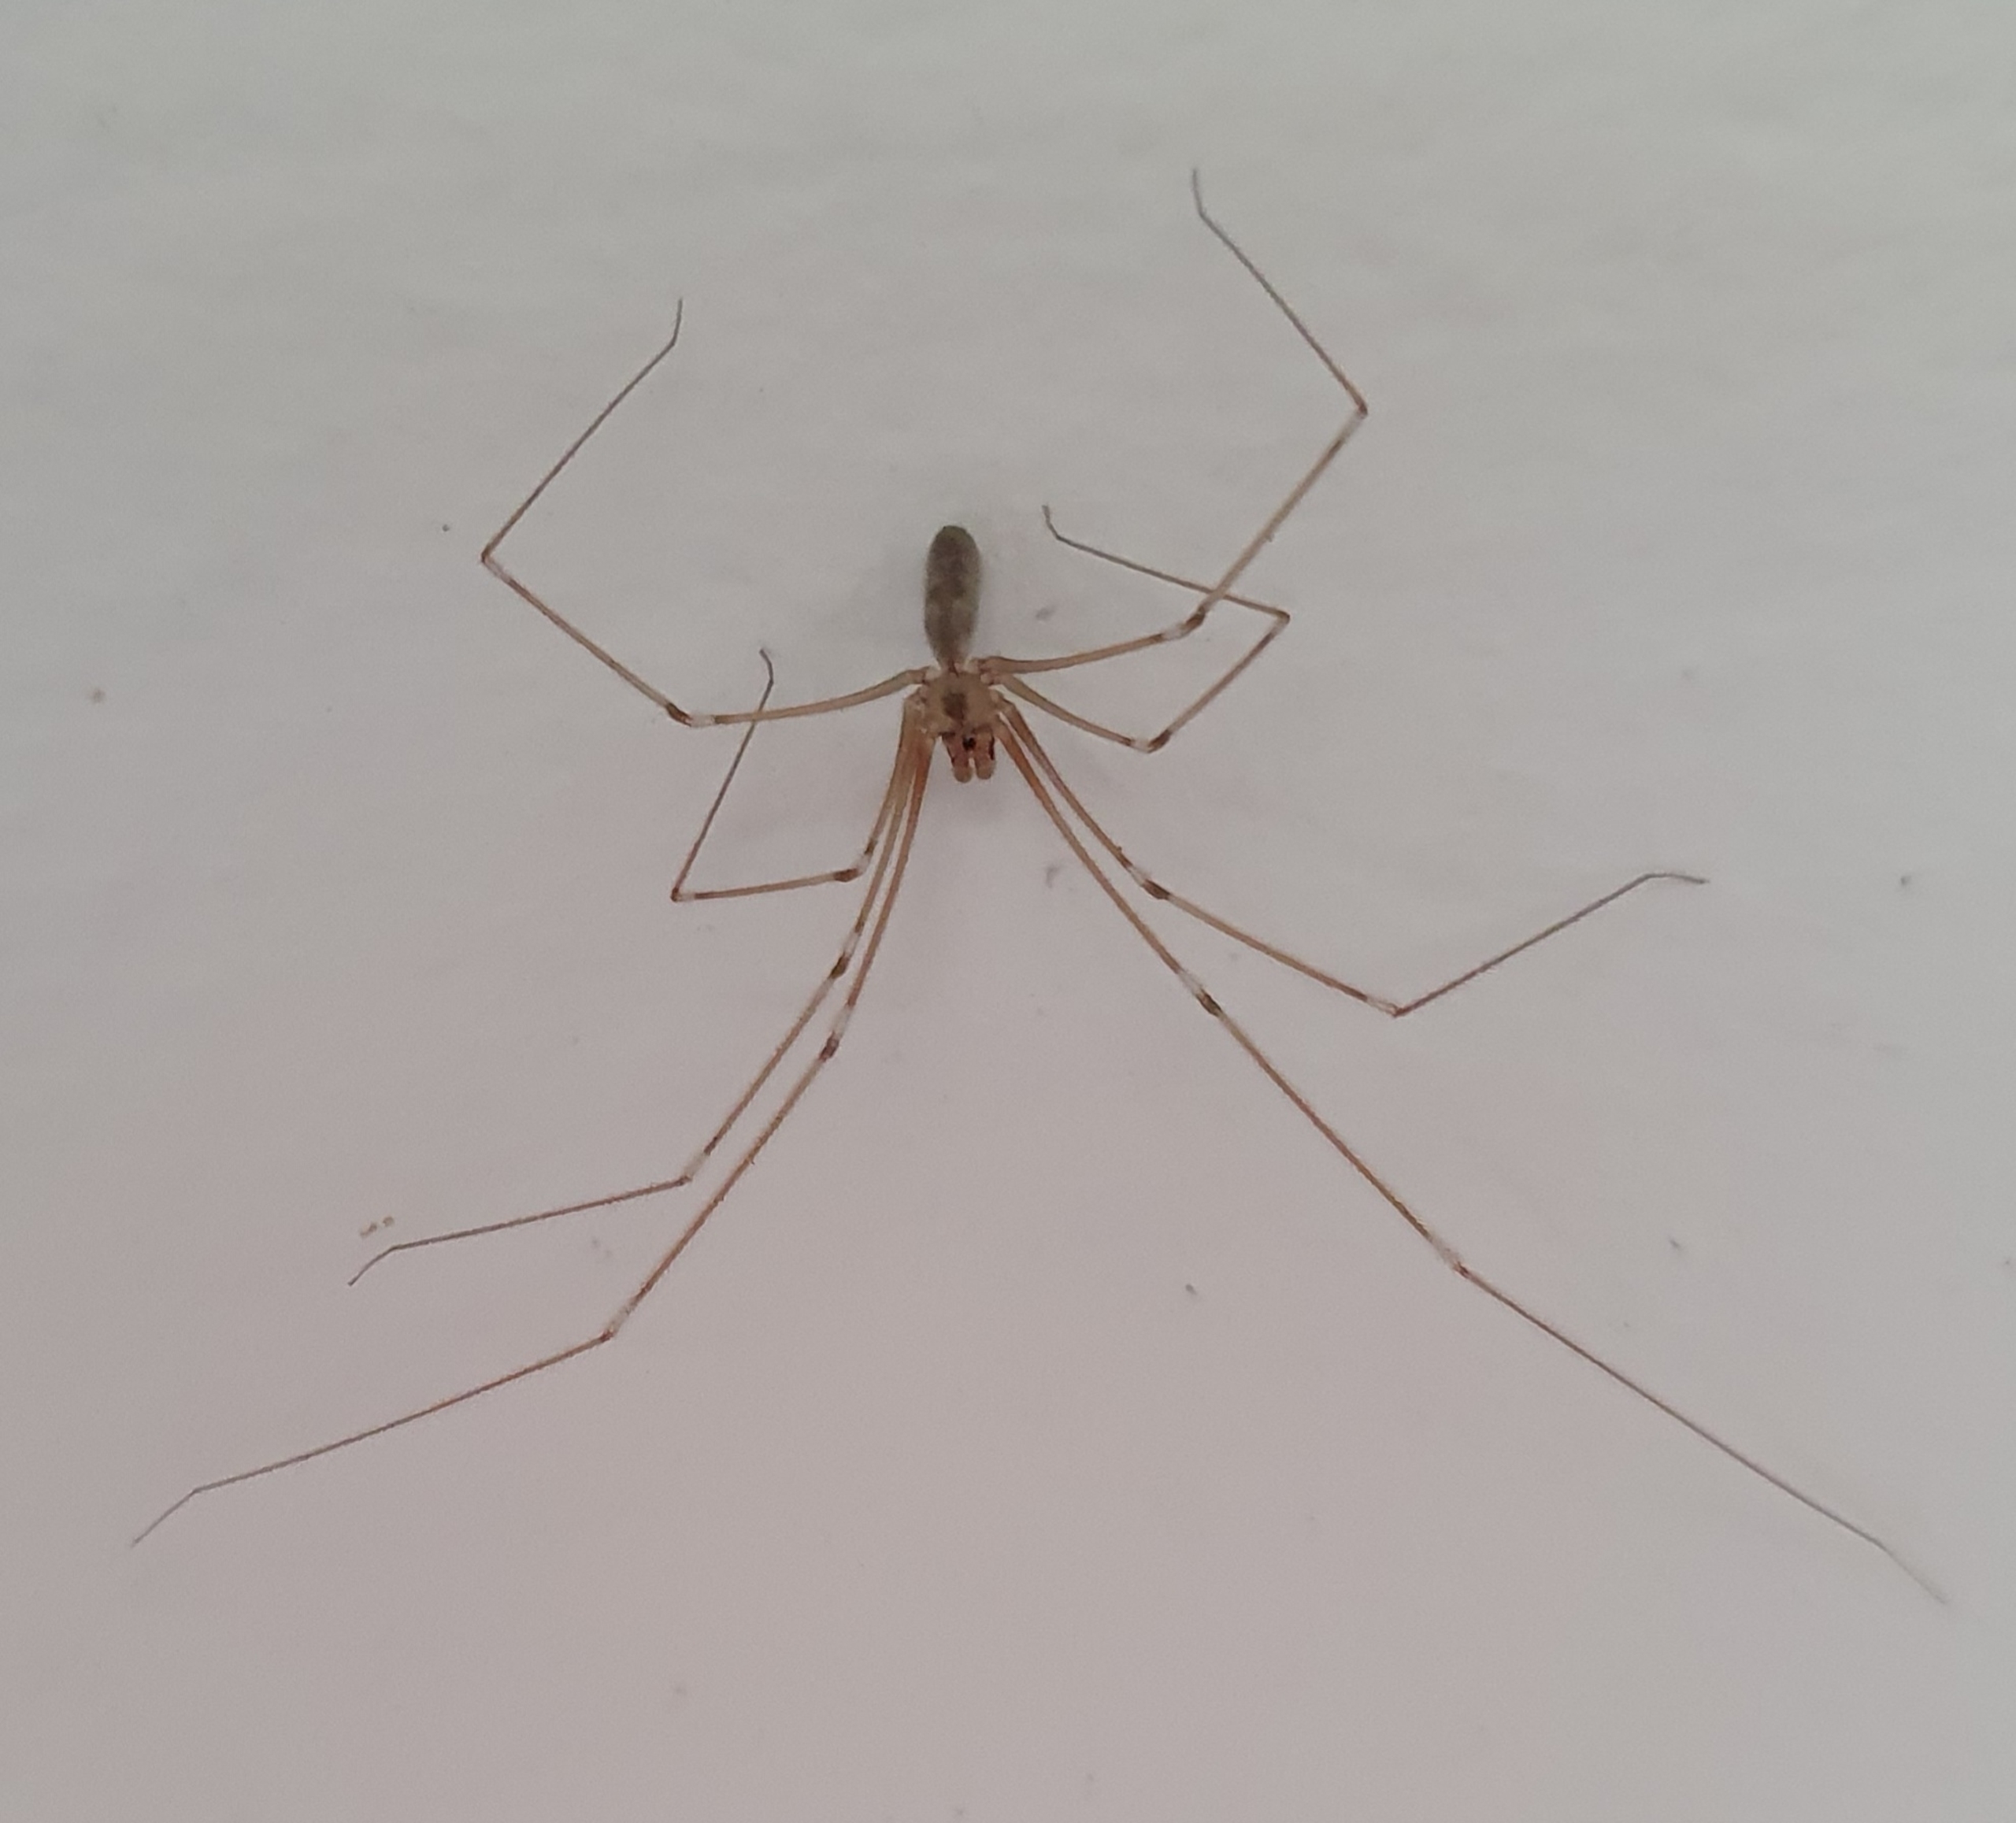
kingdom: Animalia
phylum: Arthropoda
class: Arachnida
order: Araneae
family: Pholcidae
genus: Pholcus
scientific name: Pholcus phalangioides
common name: Mejeredderkop
